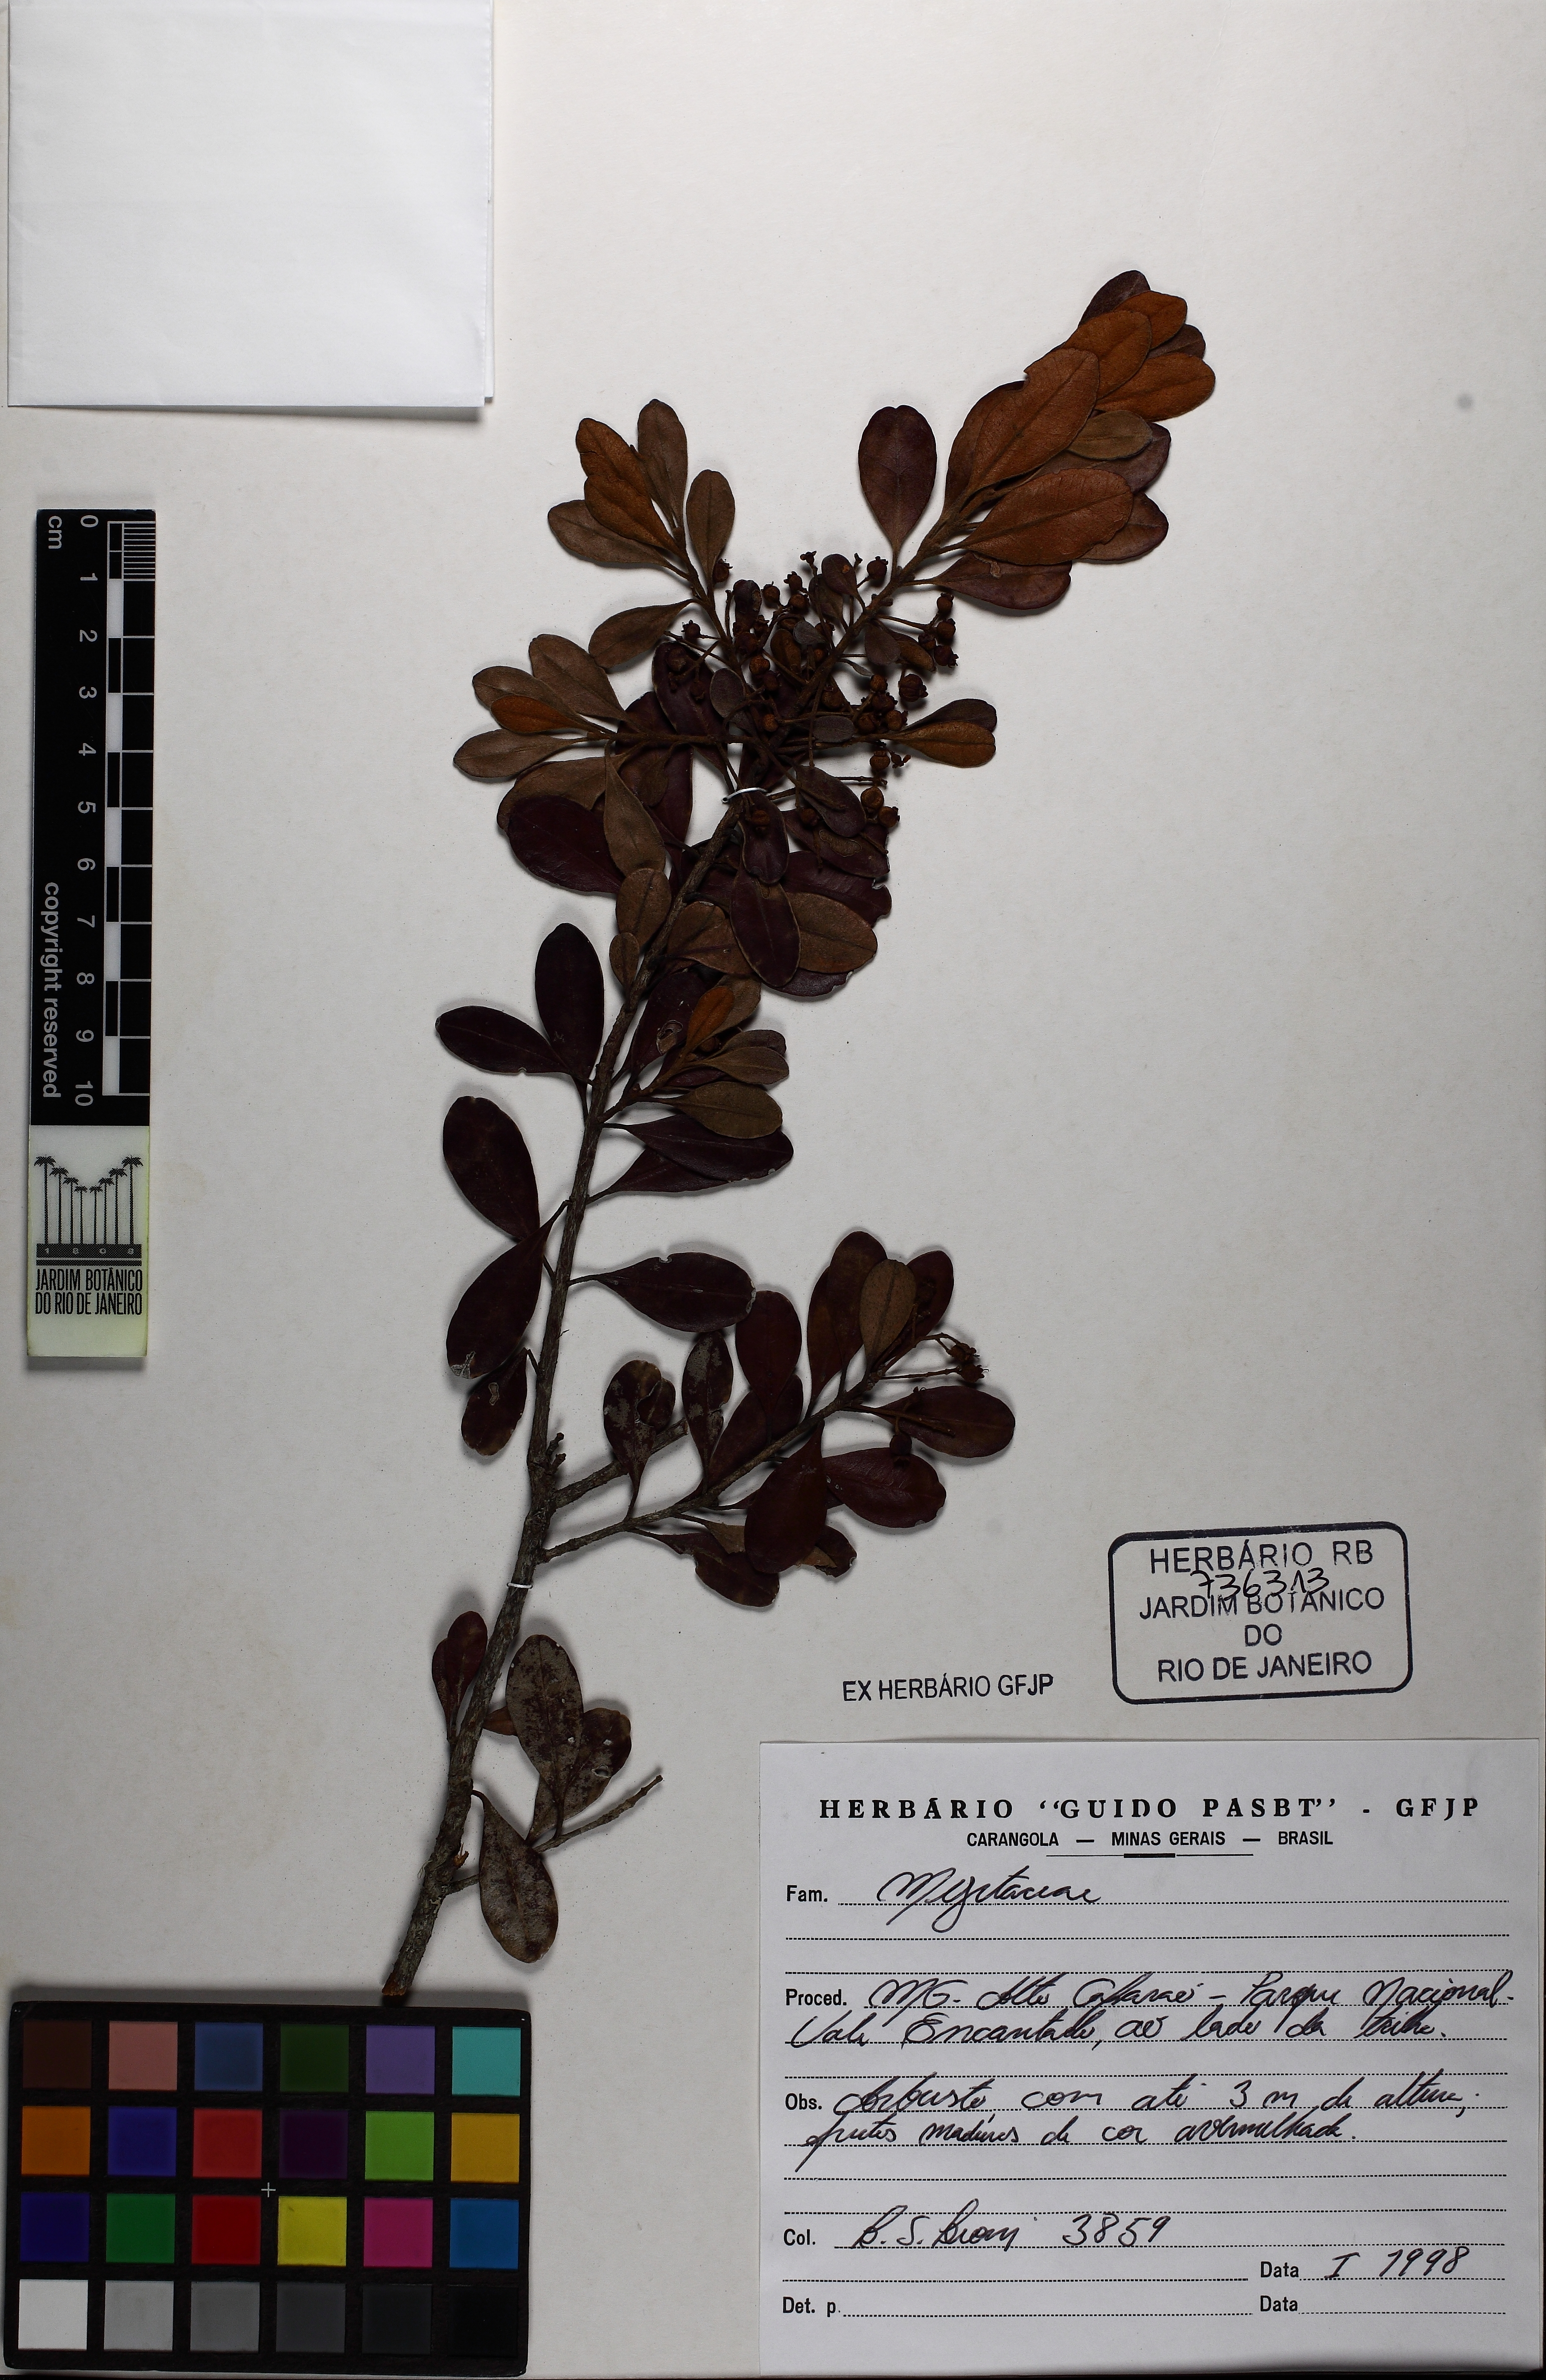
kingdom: Plantae
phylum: Tracheophyta
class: Magnoliopsida
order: Myrtales
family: Myrtaceae
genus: Myrcia
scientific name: Myrcia subalpestris
